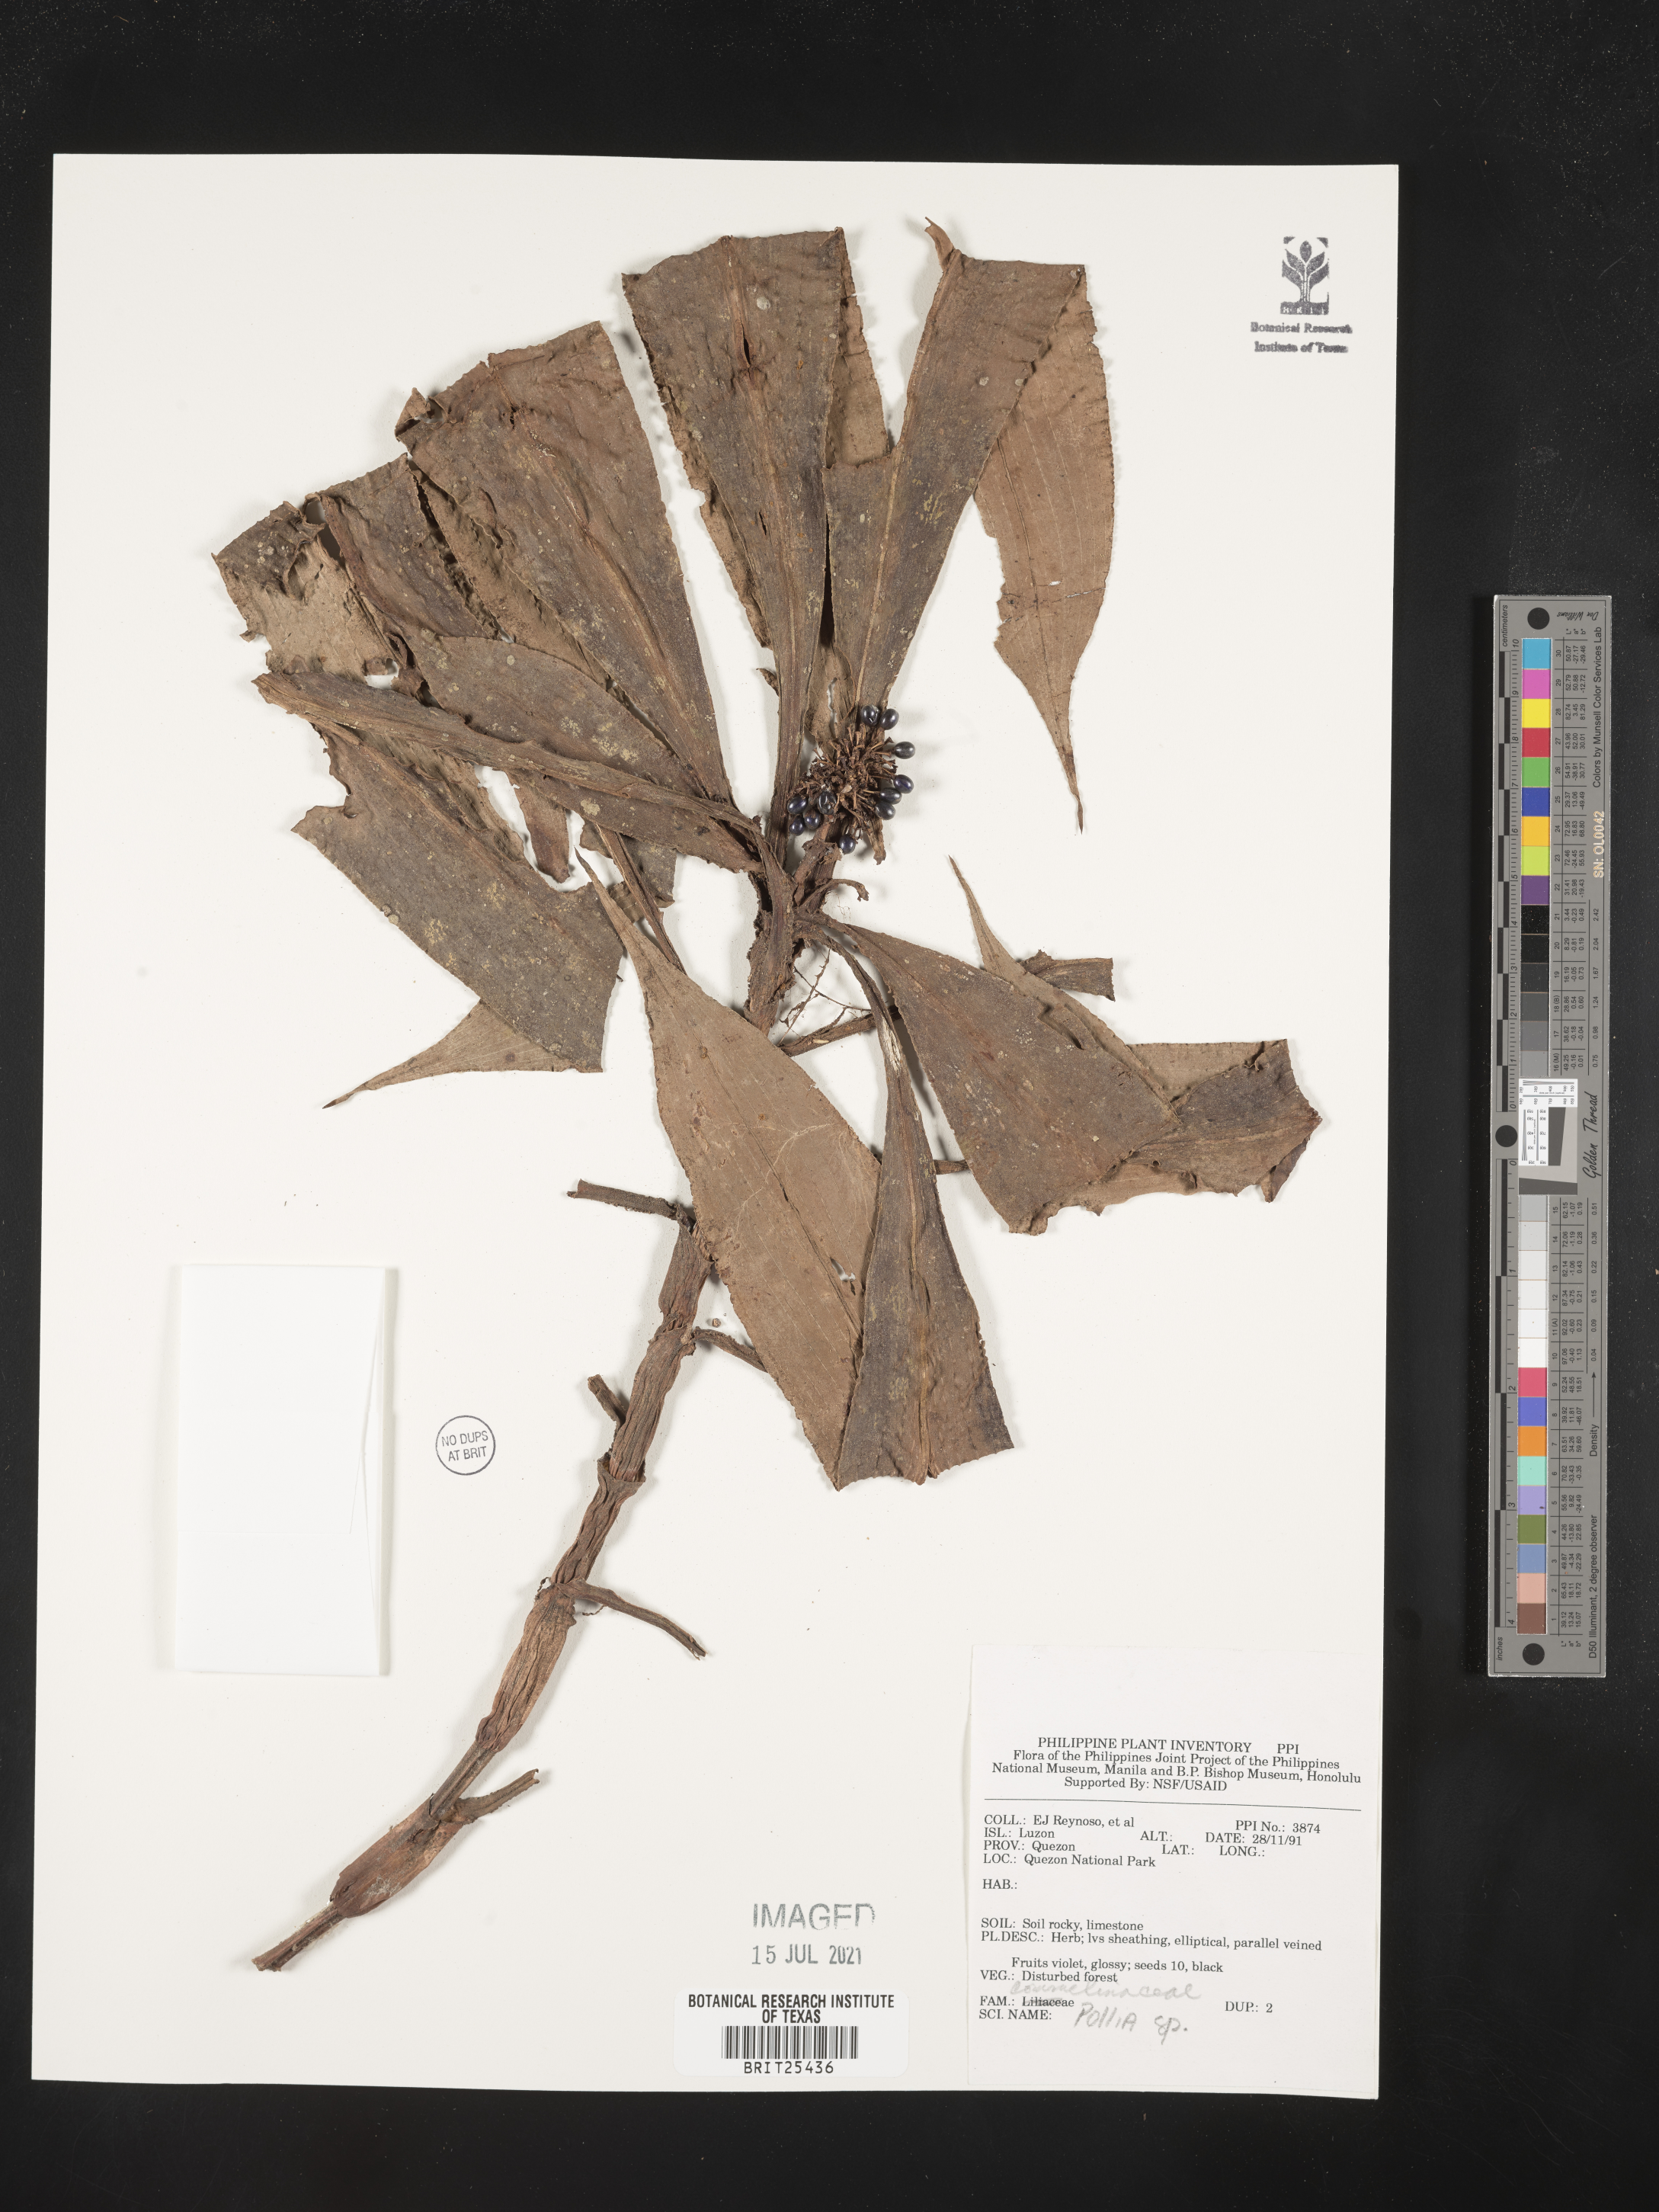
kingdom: Plantae
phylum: Tracheophyta
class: Liliopsida
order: Commelinales
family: Commelinaceae
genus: Pollia
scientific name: Pollia
